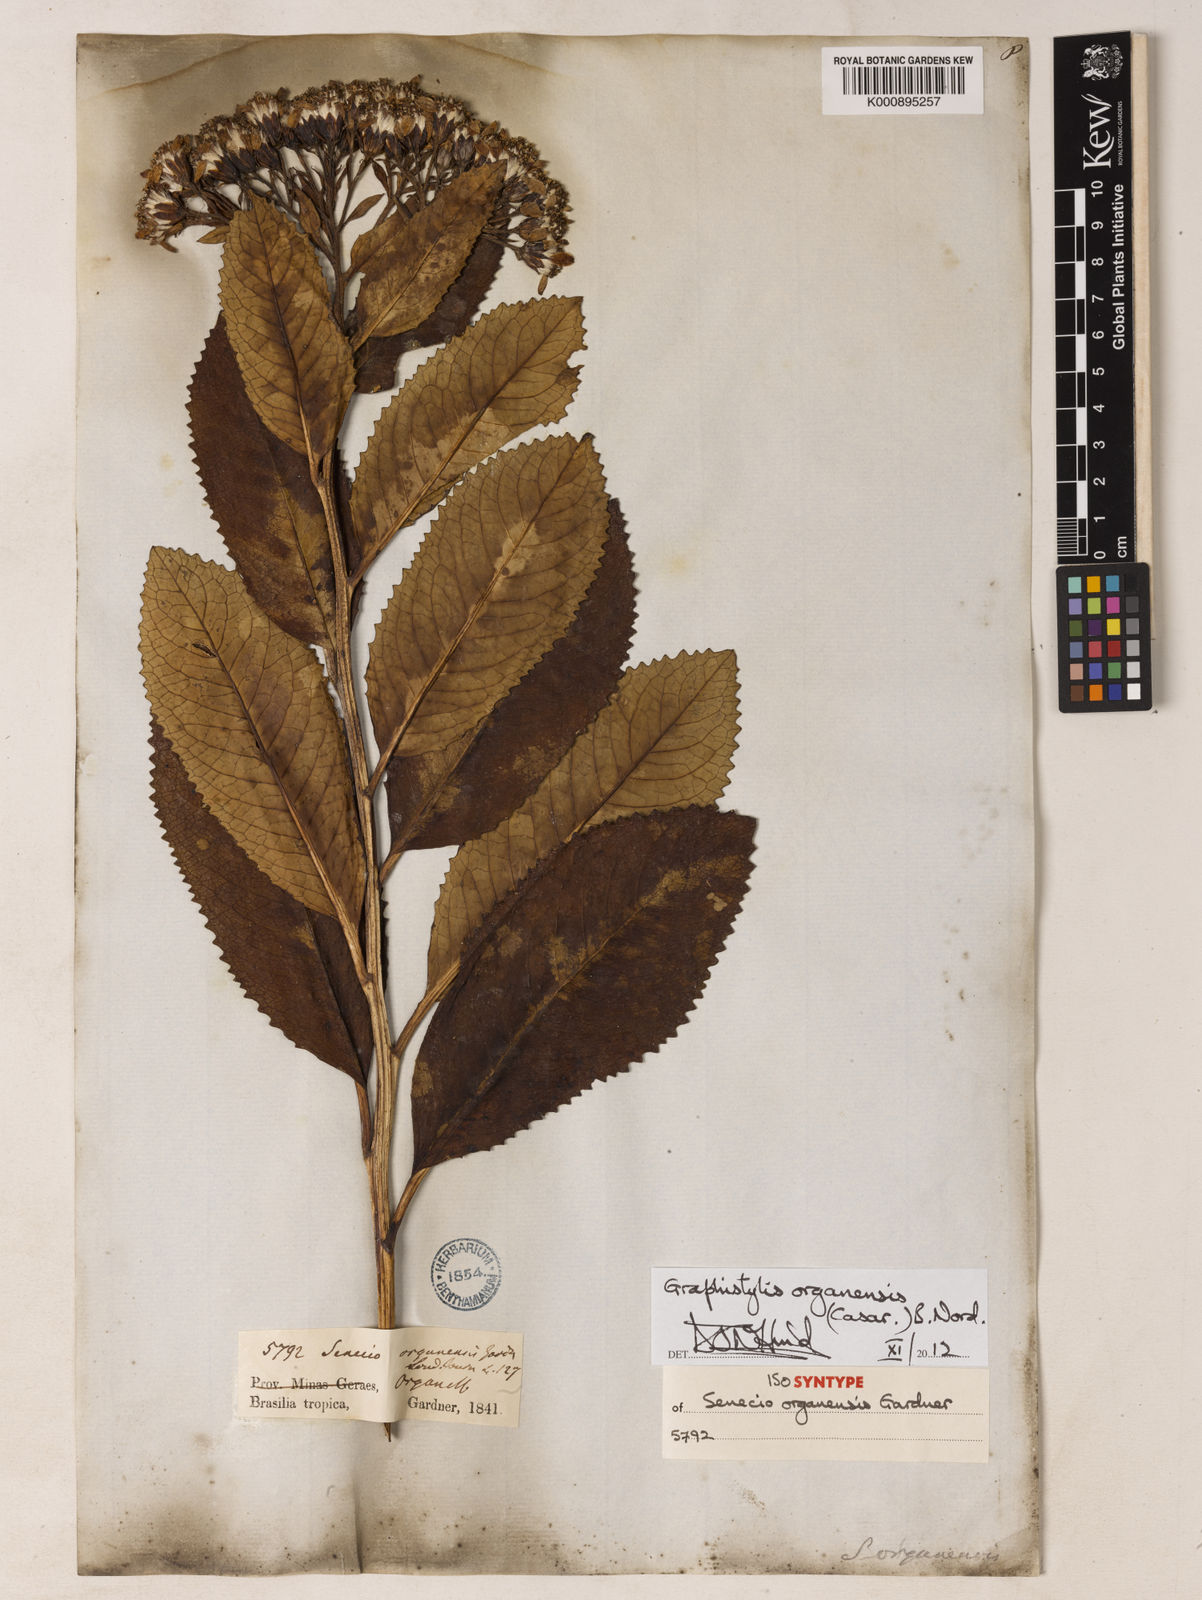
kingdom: Plantae
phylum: Tracheophyta
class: Magnoliopsida
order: Asterales
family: Asteraceae
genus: Graphistylis
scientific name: Graphistylis organensis
